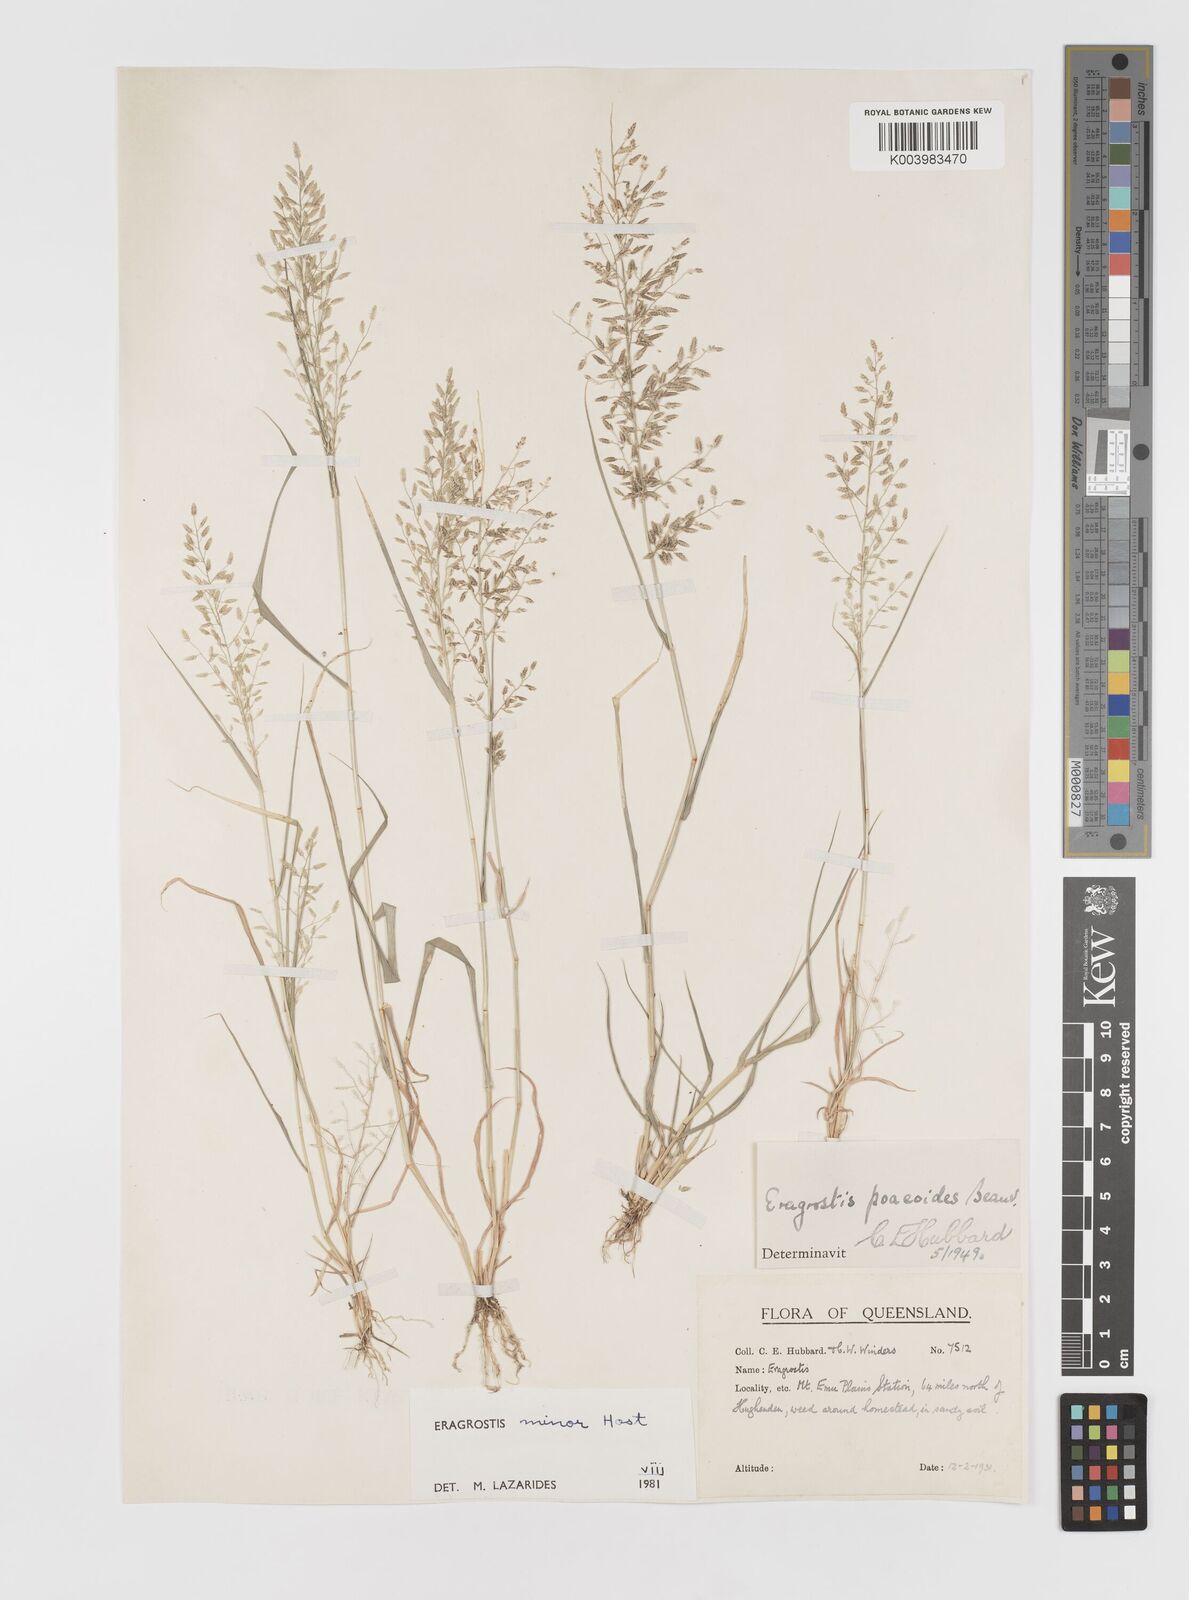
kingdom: Plantae
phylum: Tracheophyta
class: Liliopsida
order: Poales
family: Poaceae
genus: Eragrostis
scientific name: Eragrostis minor
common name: Small love-grass
